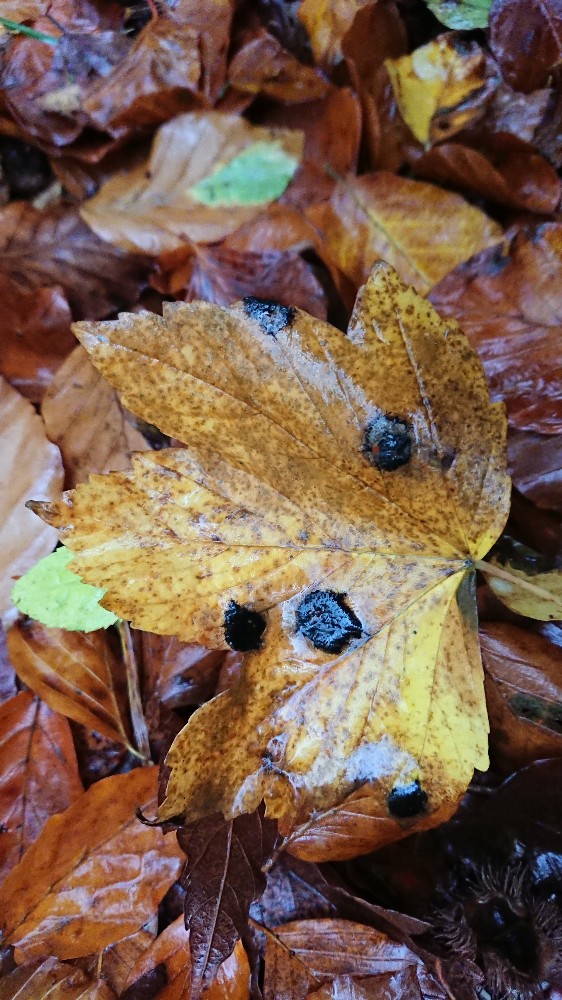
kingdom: Fungi
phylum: Ascomycota
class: Leotiomycetes
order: Rhytismatales
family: Rhytismataceae
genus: Rhytisma
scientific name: Rhytisma acerinum
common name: ahorn-rynkeplet
